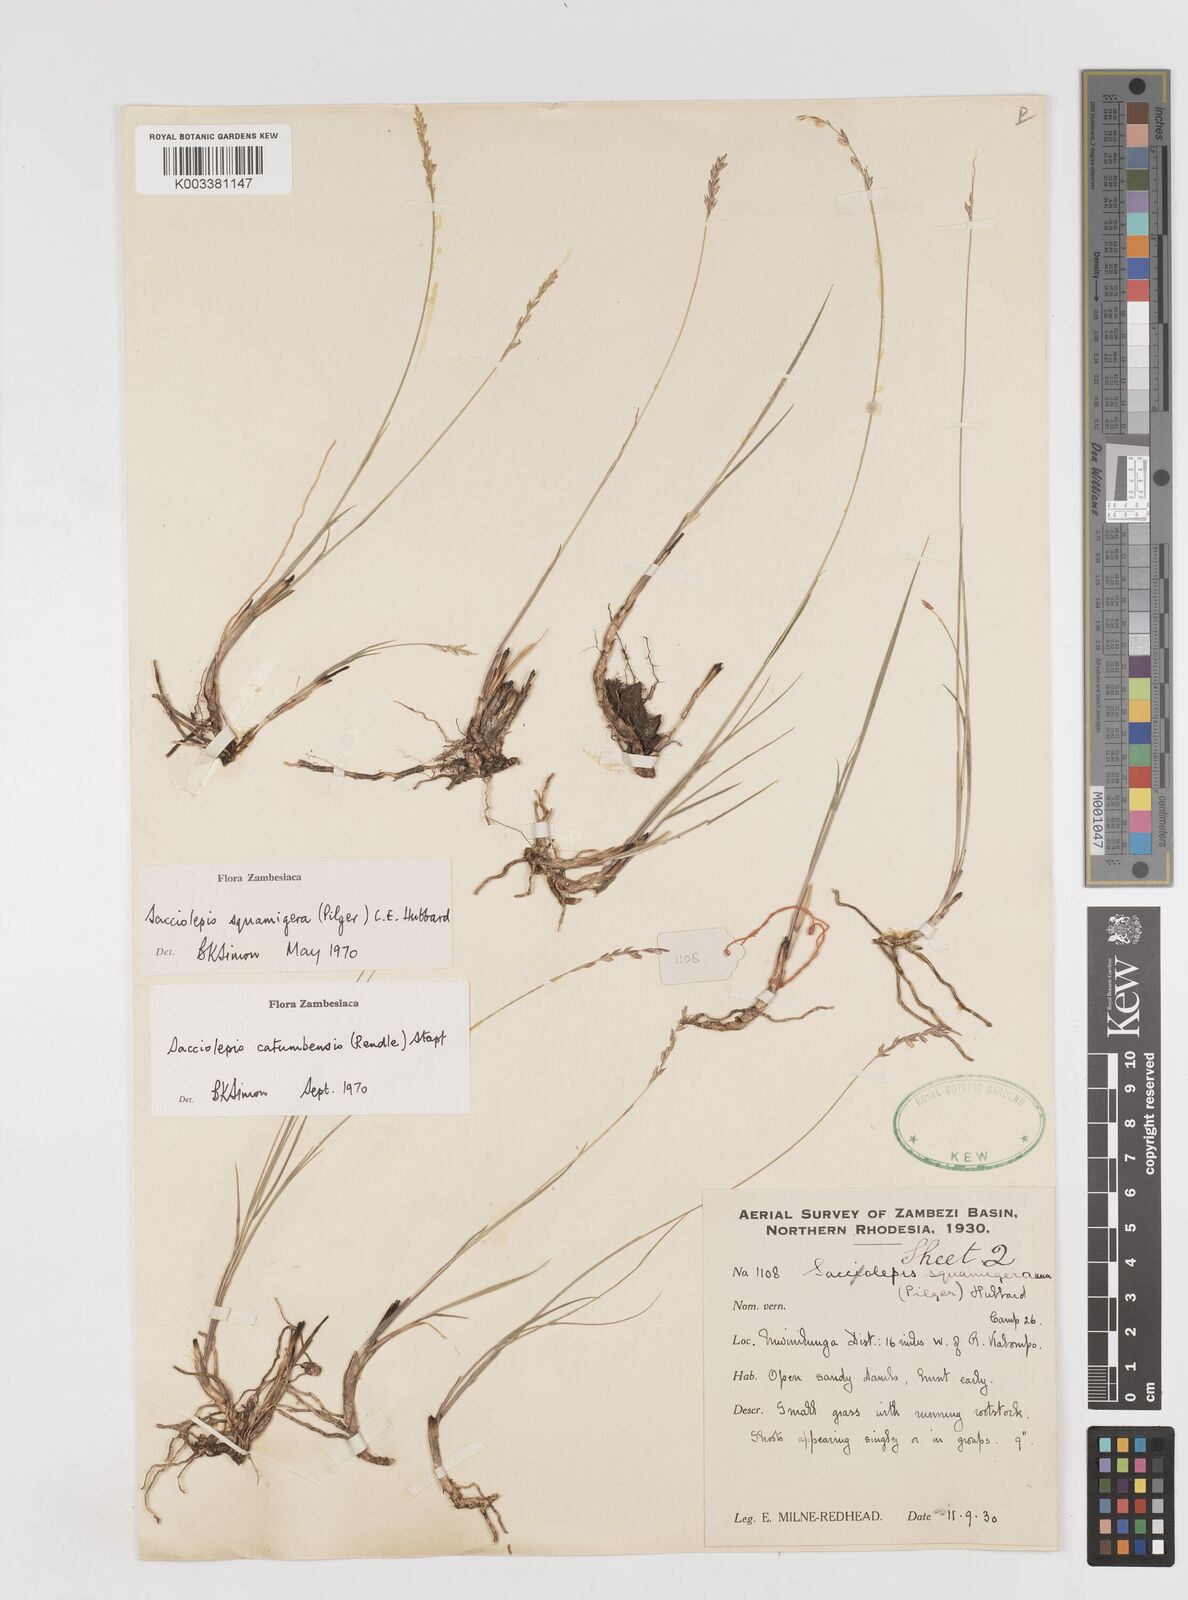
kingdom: Plantae
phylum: Tracheophyta
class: Liliopsida
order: Poales
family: Poaceae
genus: Sacciolepis
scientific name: Sacciolepis catumbensis
